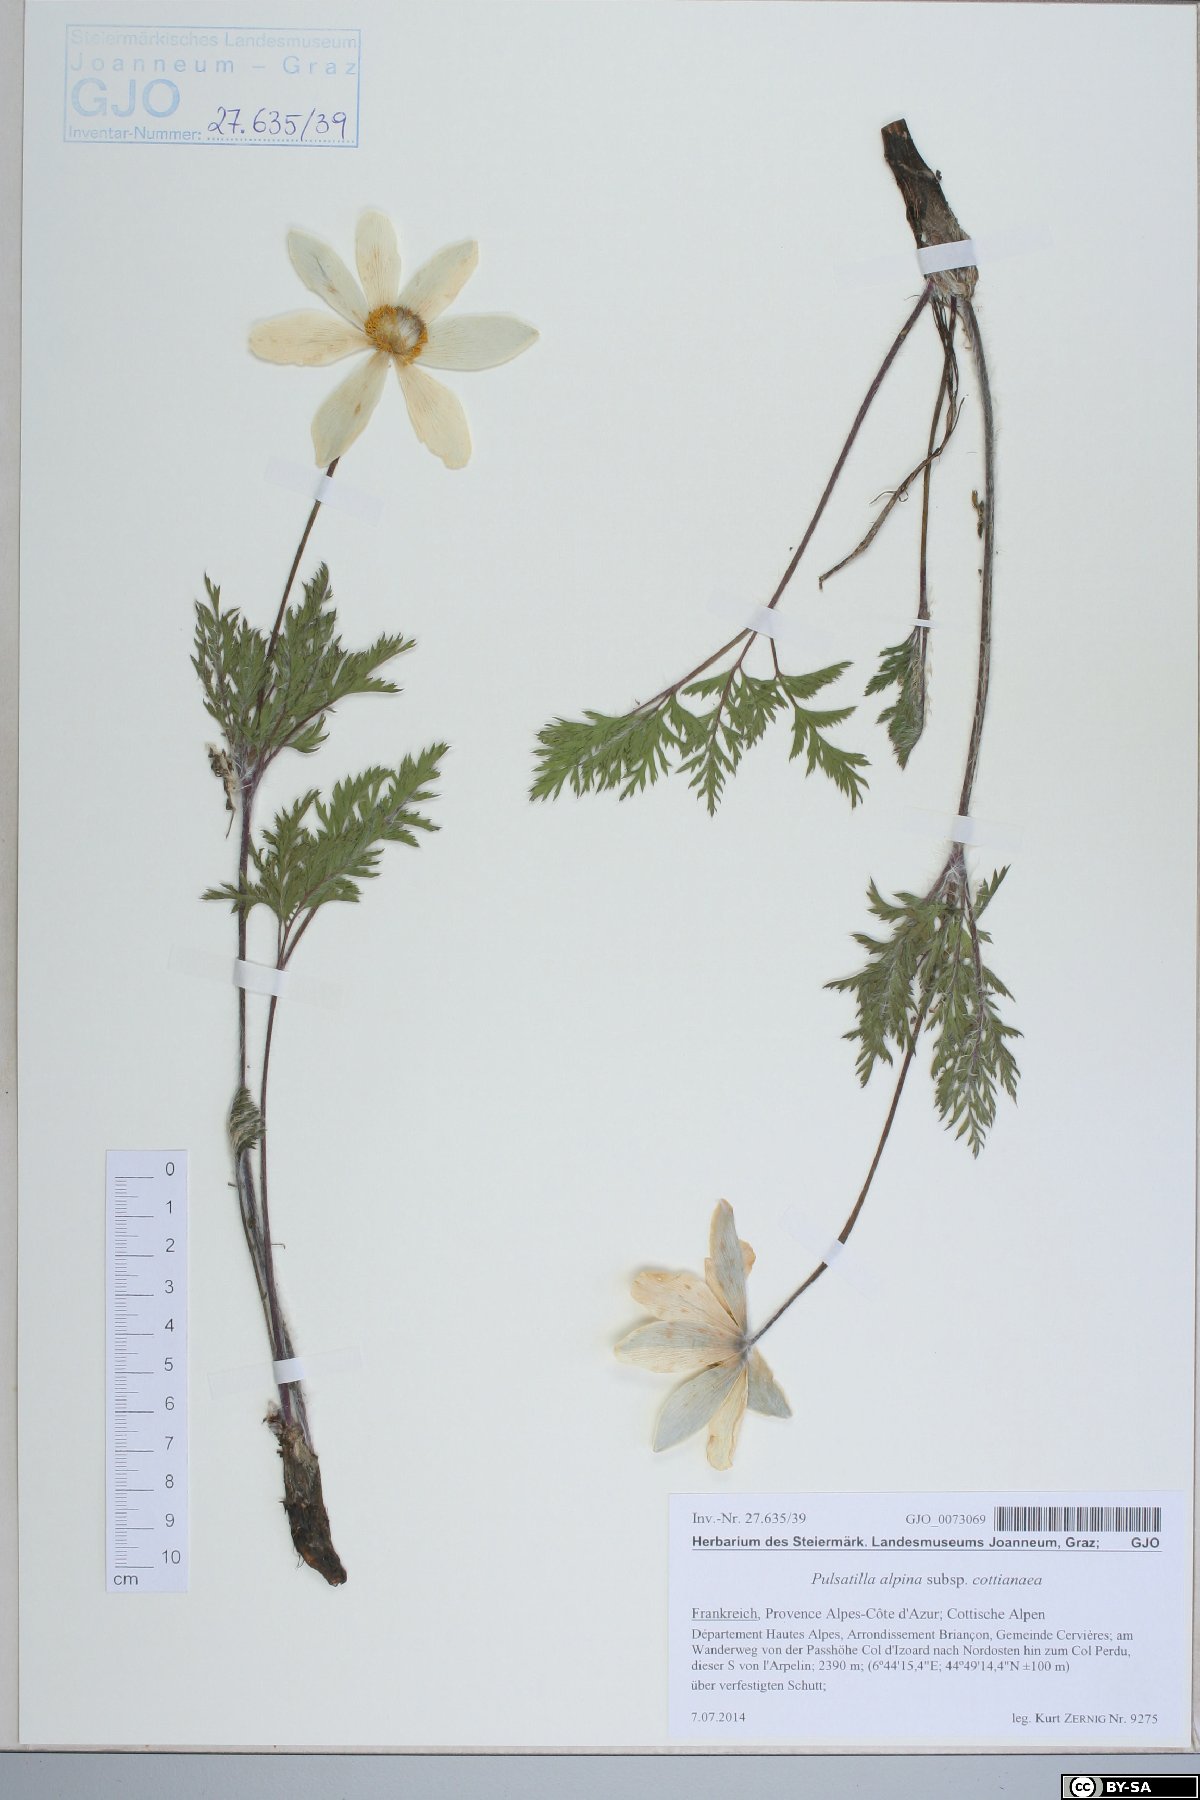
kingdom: Plantae
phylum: Tracheophyta
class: Magnoliopsida
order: Ranunculales
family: Ranunculaceae
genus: Pulsatilla
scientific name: Pulsatilla alpina
